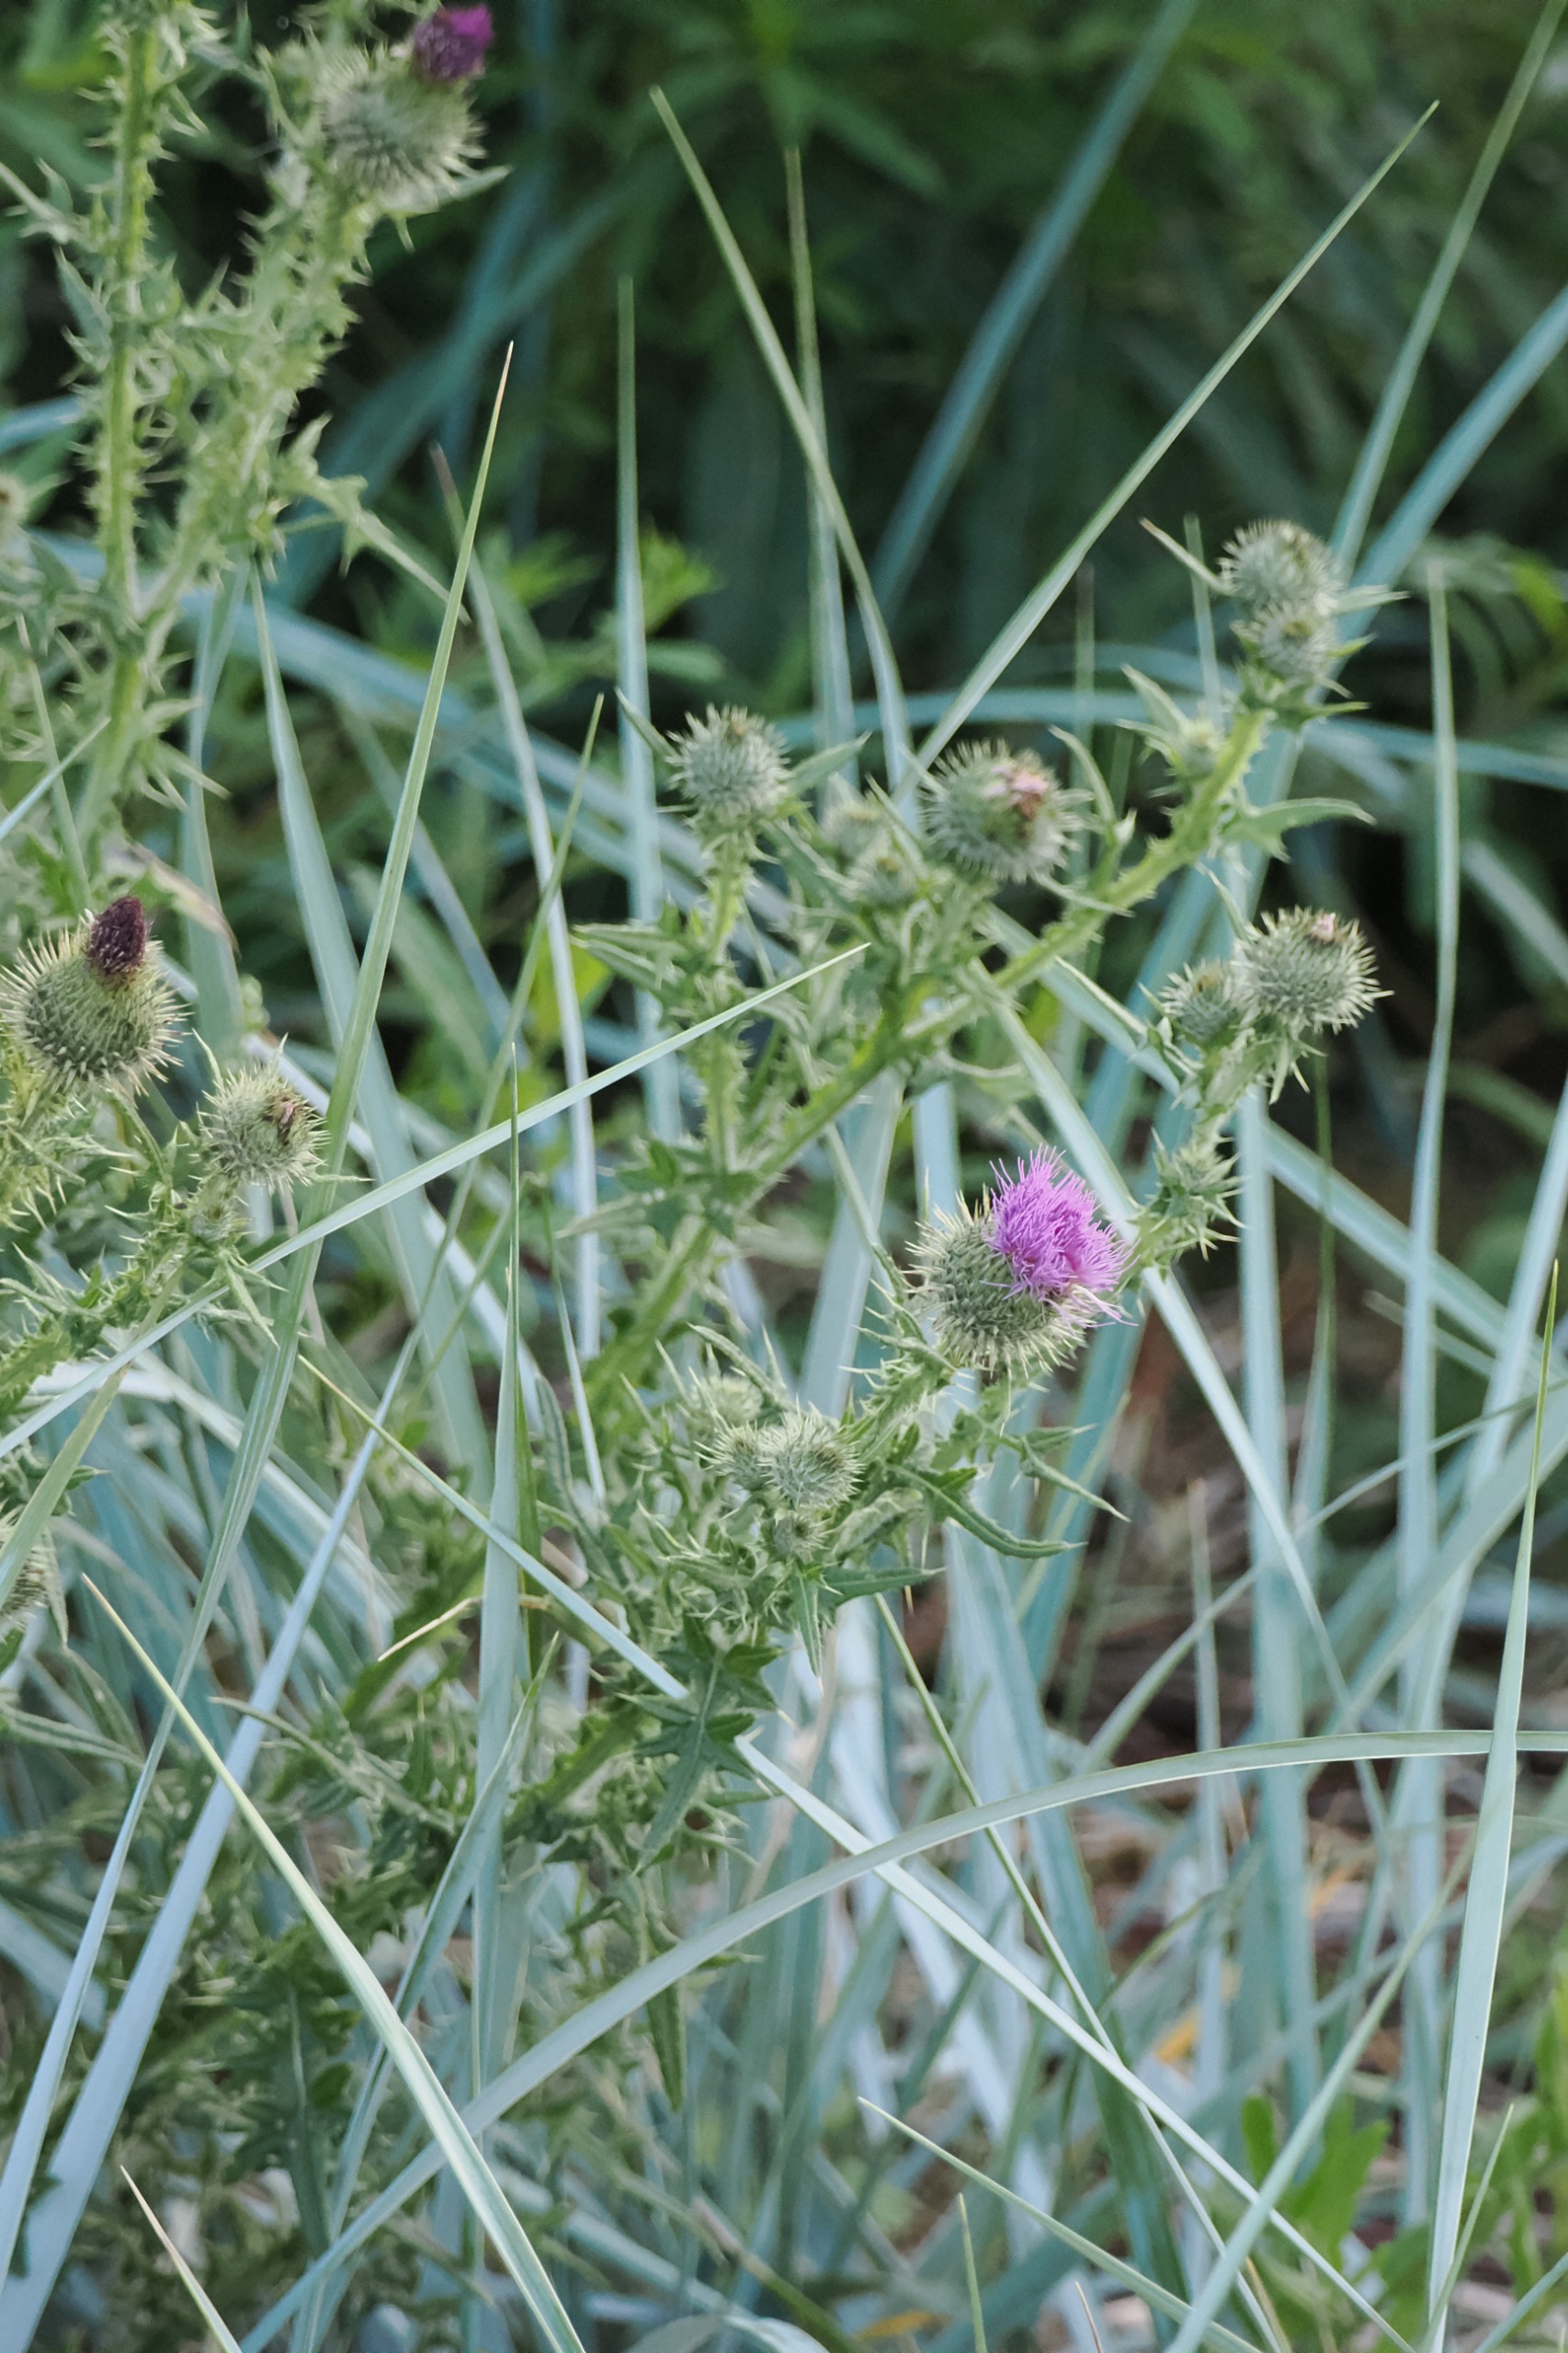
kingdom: Plantae
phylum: Tracheophyta
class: Magnoliopsida
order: Asterales
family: Asteraceae
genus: Cirsium
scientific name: Cirsium vulgare
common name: Horse-tidsel
